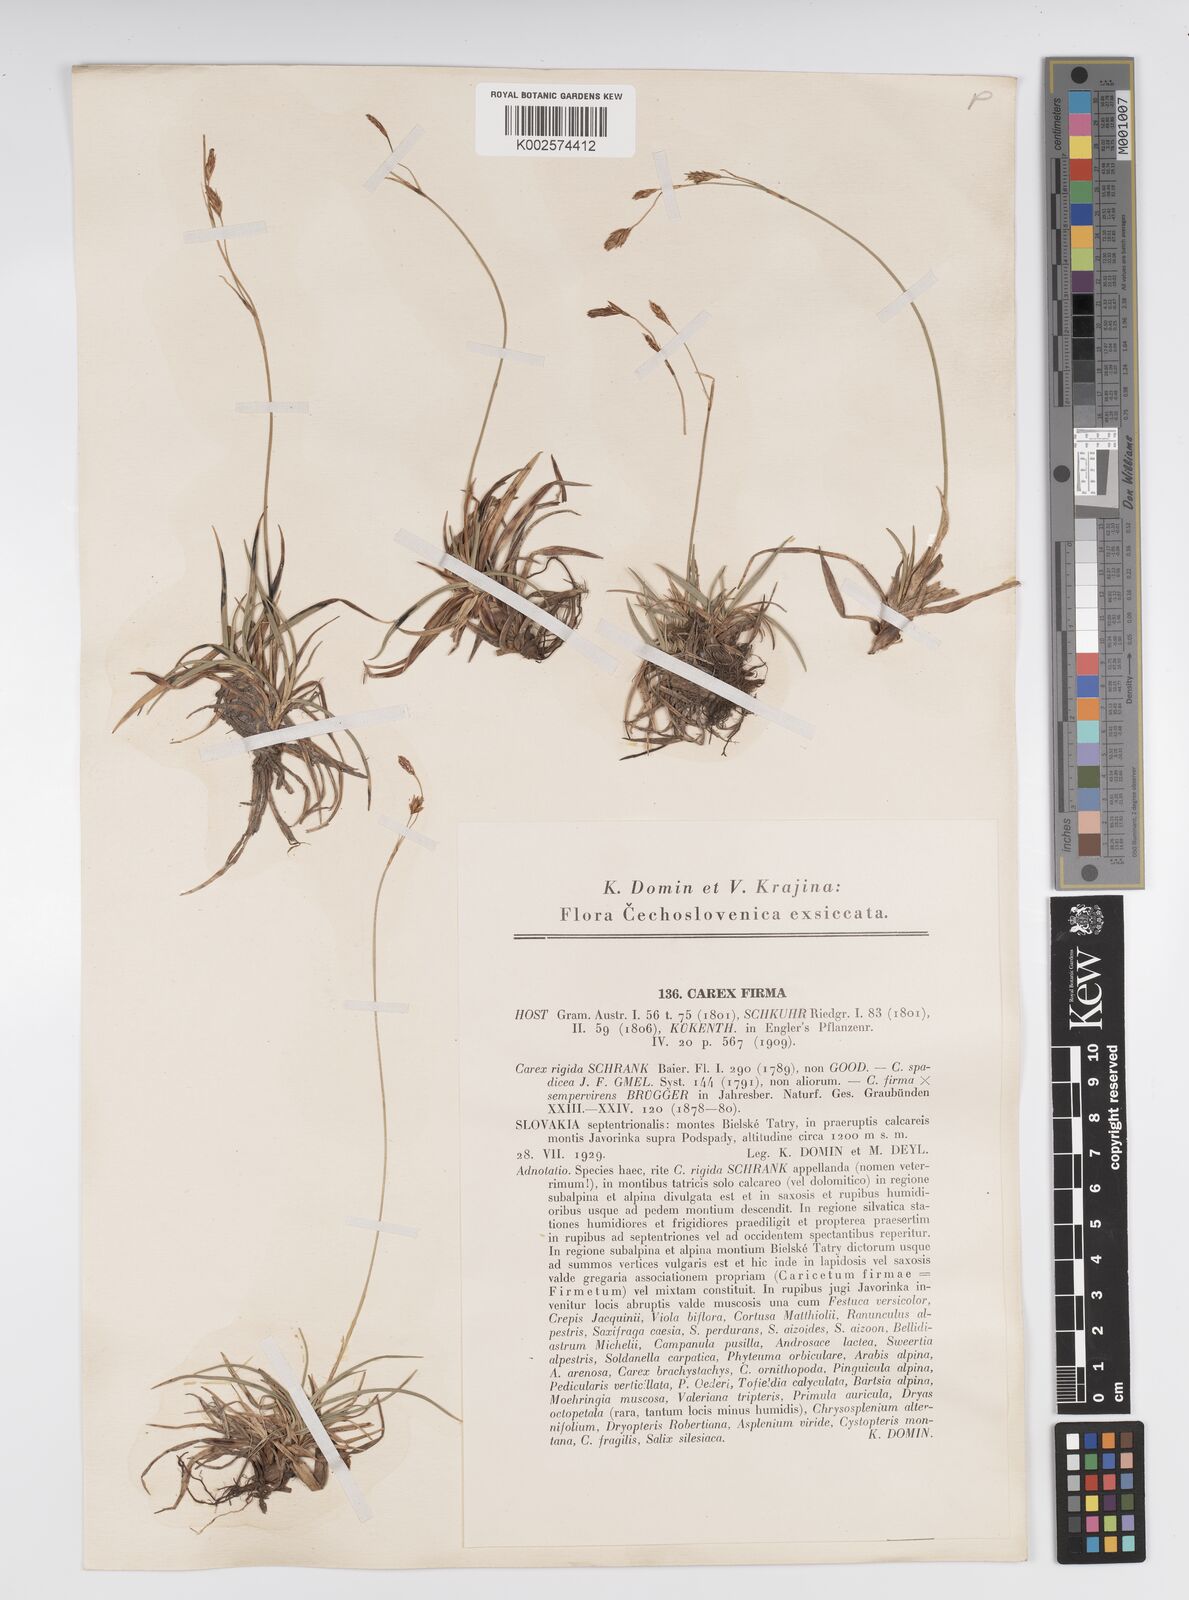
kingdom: Plantae
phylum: Tracheophyta
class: Liliopsida
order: Poales
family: Cyperaceae
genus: Carex
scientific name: Carex firma
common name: Dwarf pillow sedge
